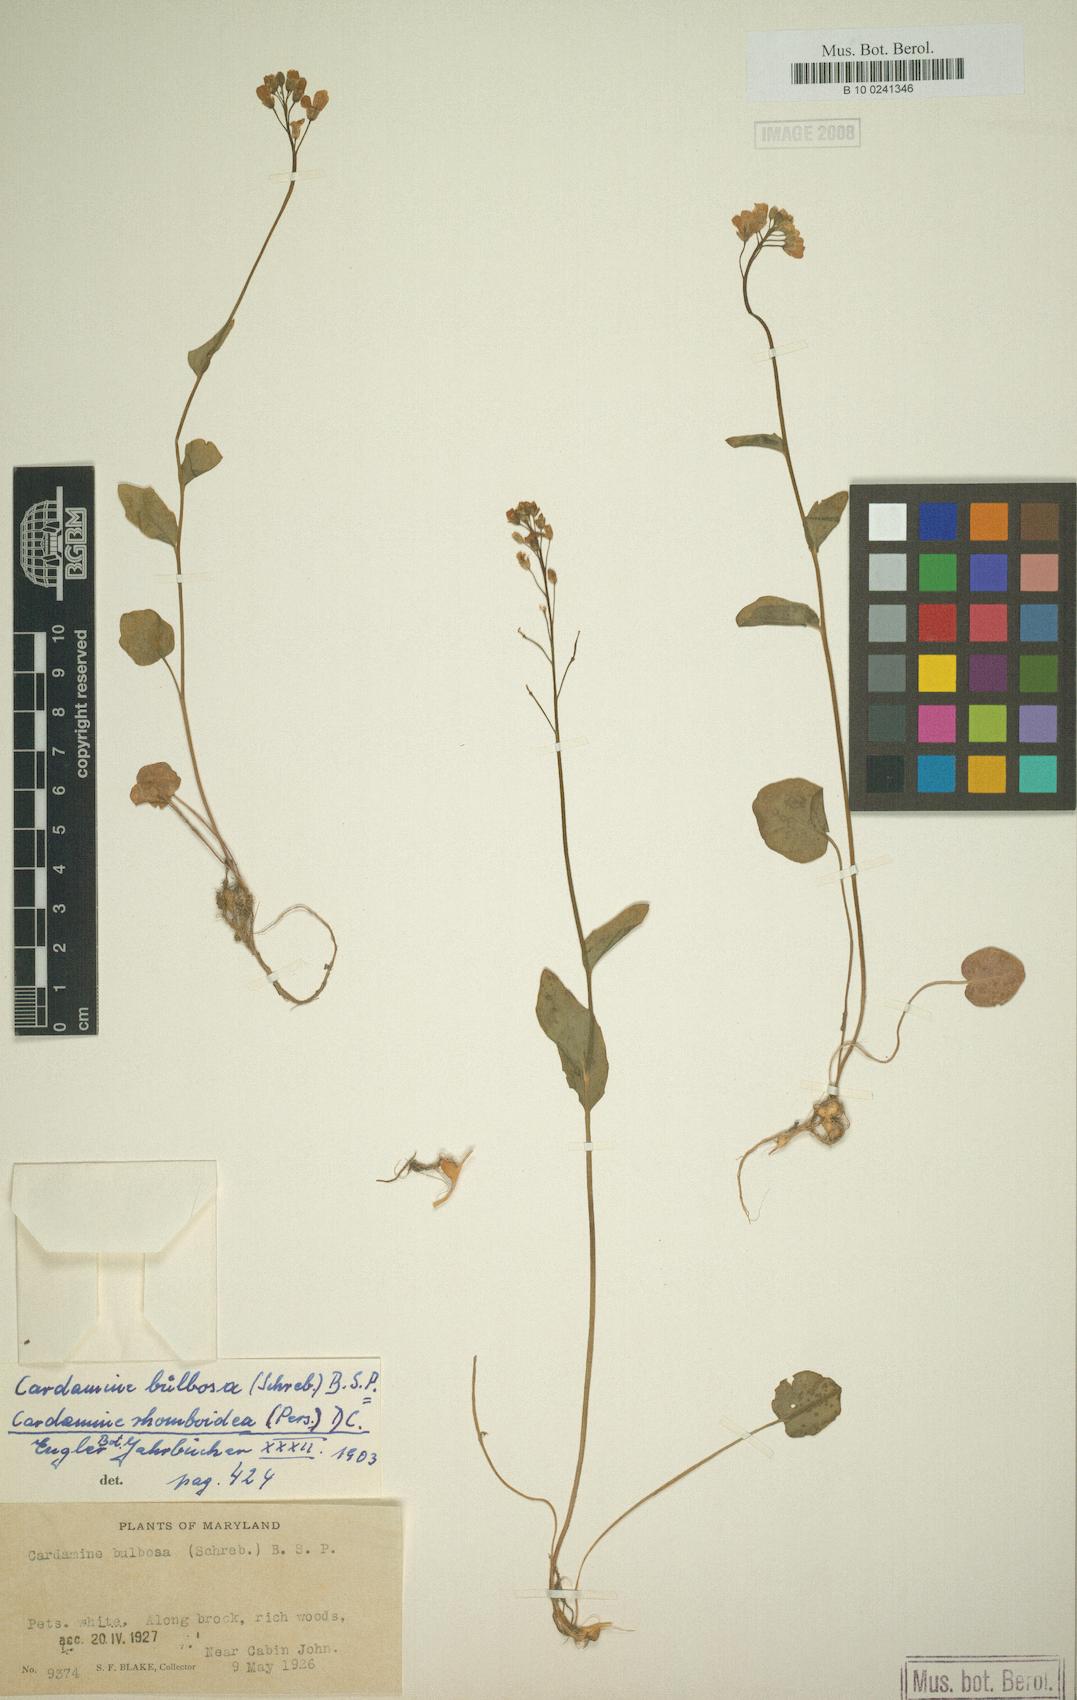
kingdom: Plantae
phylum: Tracheophyta
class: Magnoliopsida
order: Brassicales
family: Brassicaceae
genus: Cardamine
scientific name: Cardamine bulbosa
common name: Spring cress
